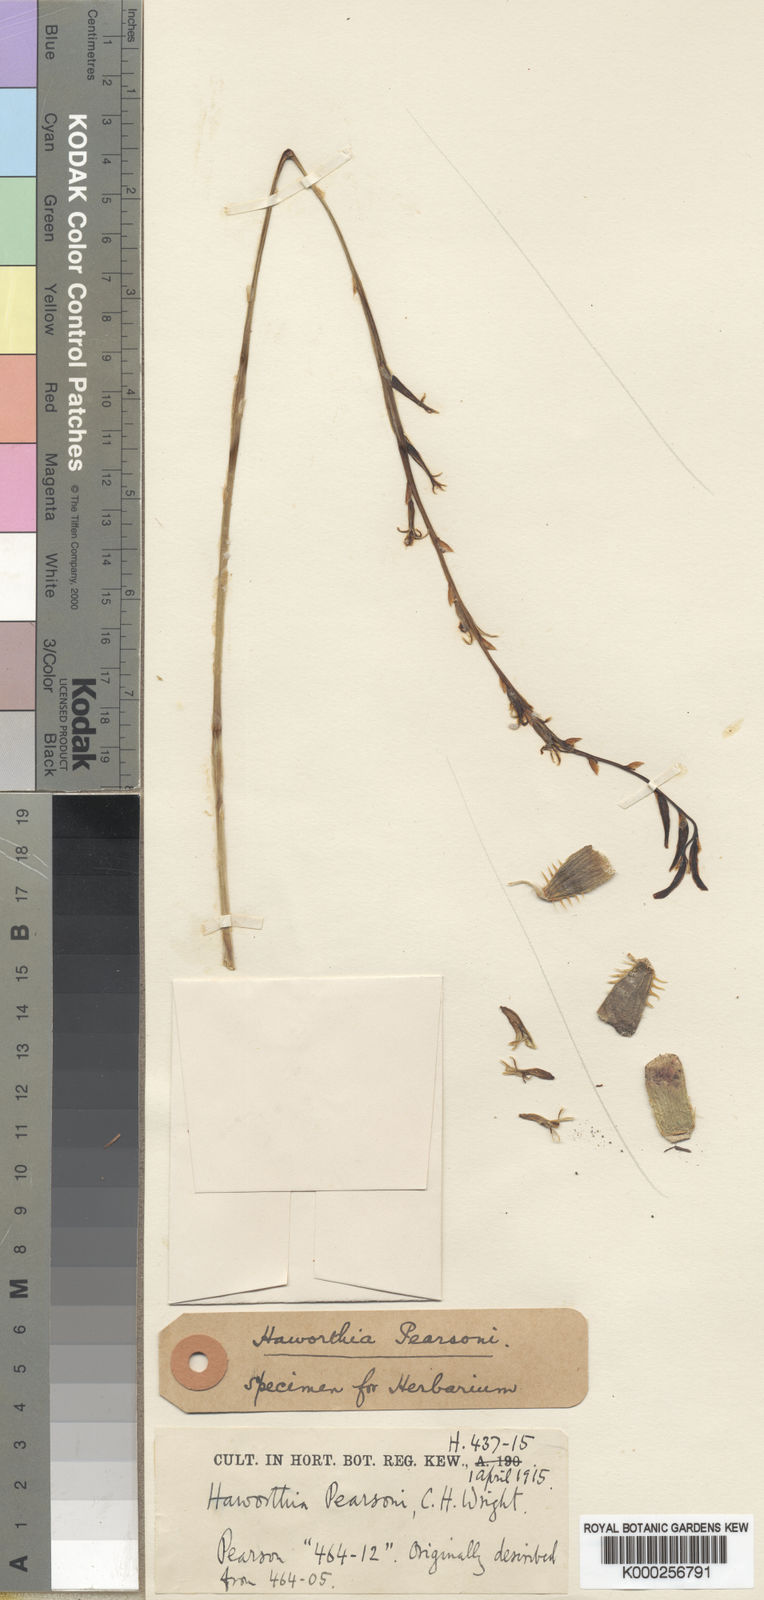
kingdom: Plantae
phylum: Tracheophyta
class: Liliopsida
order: Asparagales
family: Asphodelaceae
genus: Haworthia
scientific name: Haworthia arachnoidea
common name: Cobweb-aloe
